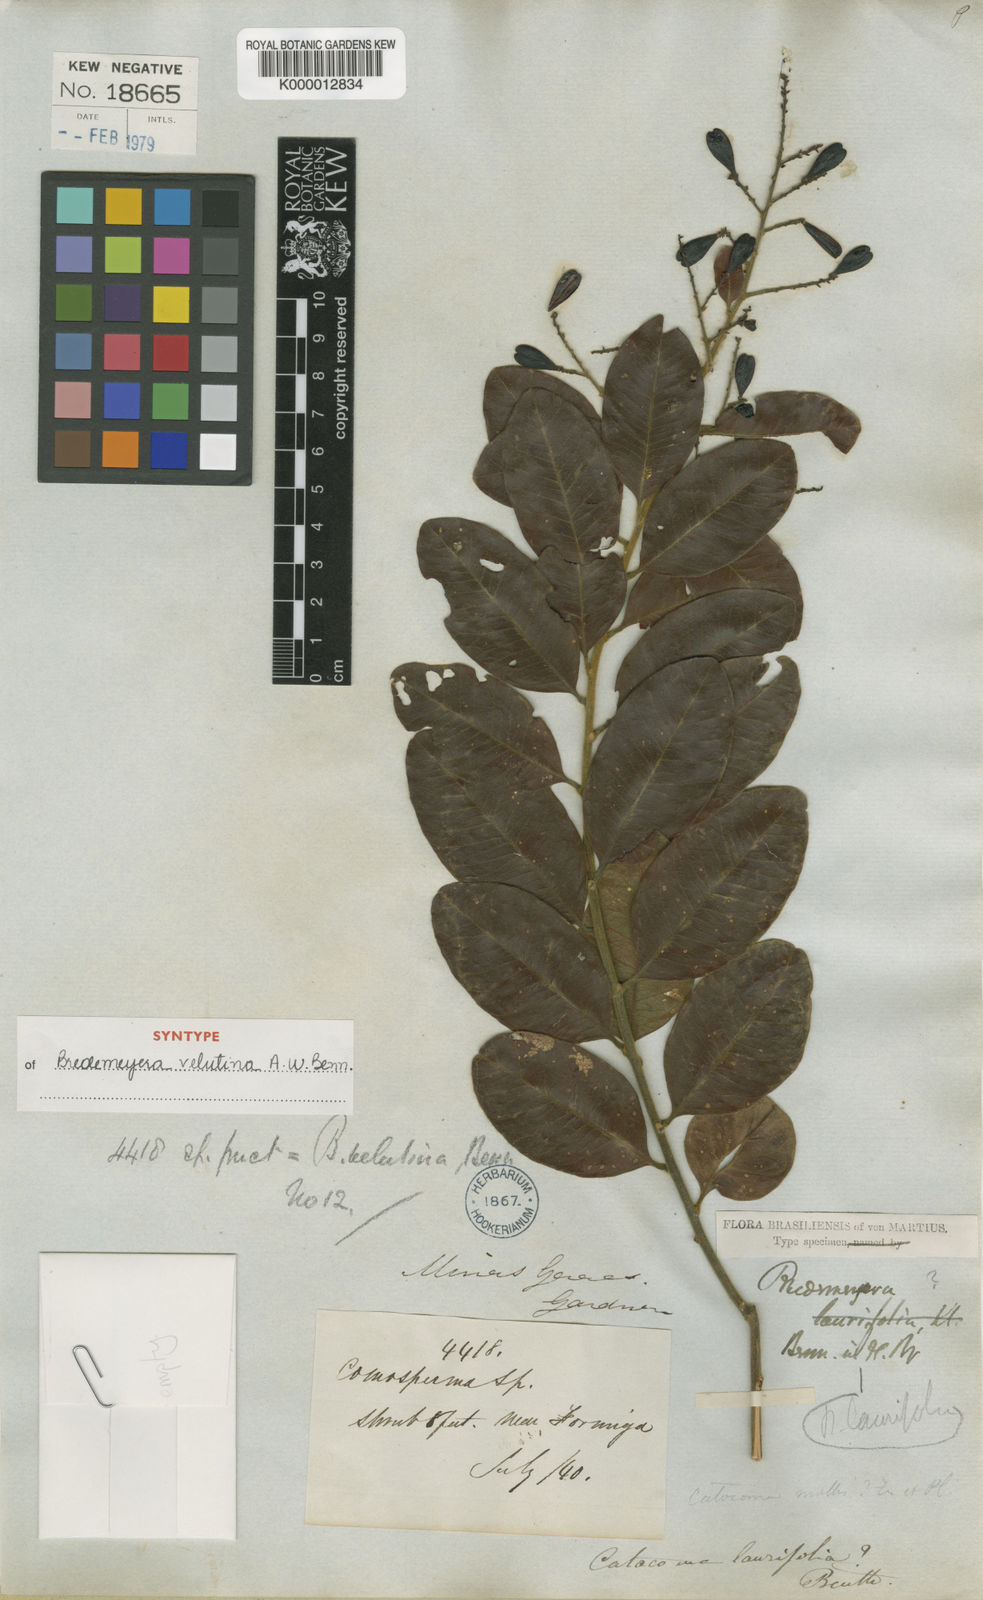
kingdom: Plantae
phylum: Tracheophyta
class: Magnoliopsida
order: Fabales
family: Polygalaceae
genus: Bredemeyera
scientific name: Bredemeyera hebeclada
